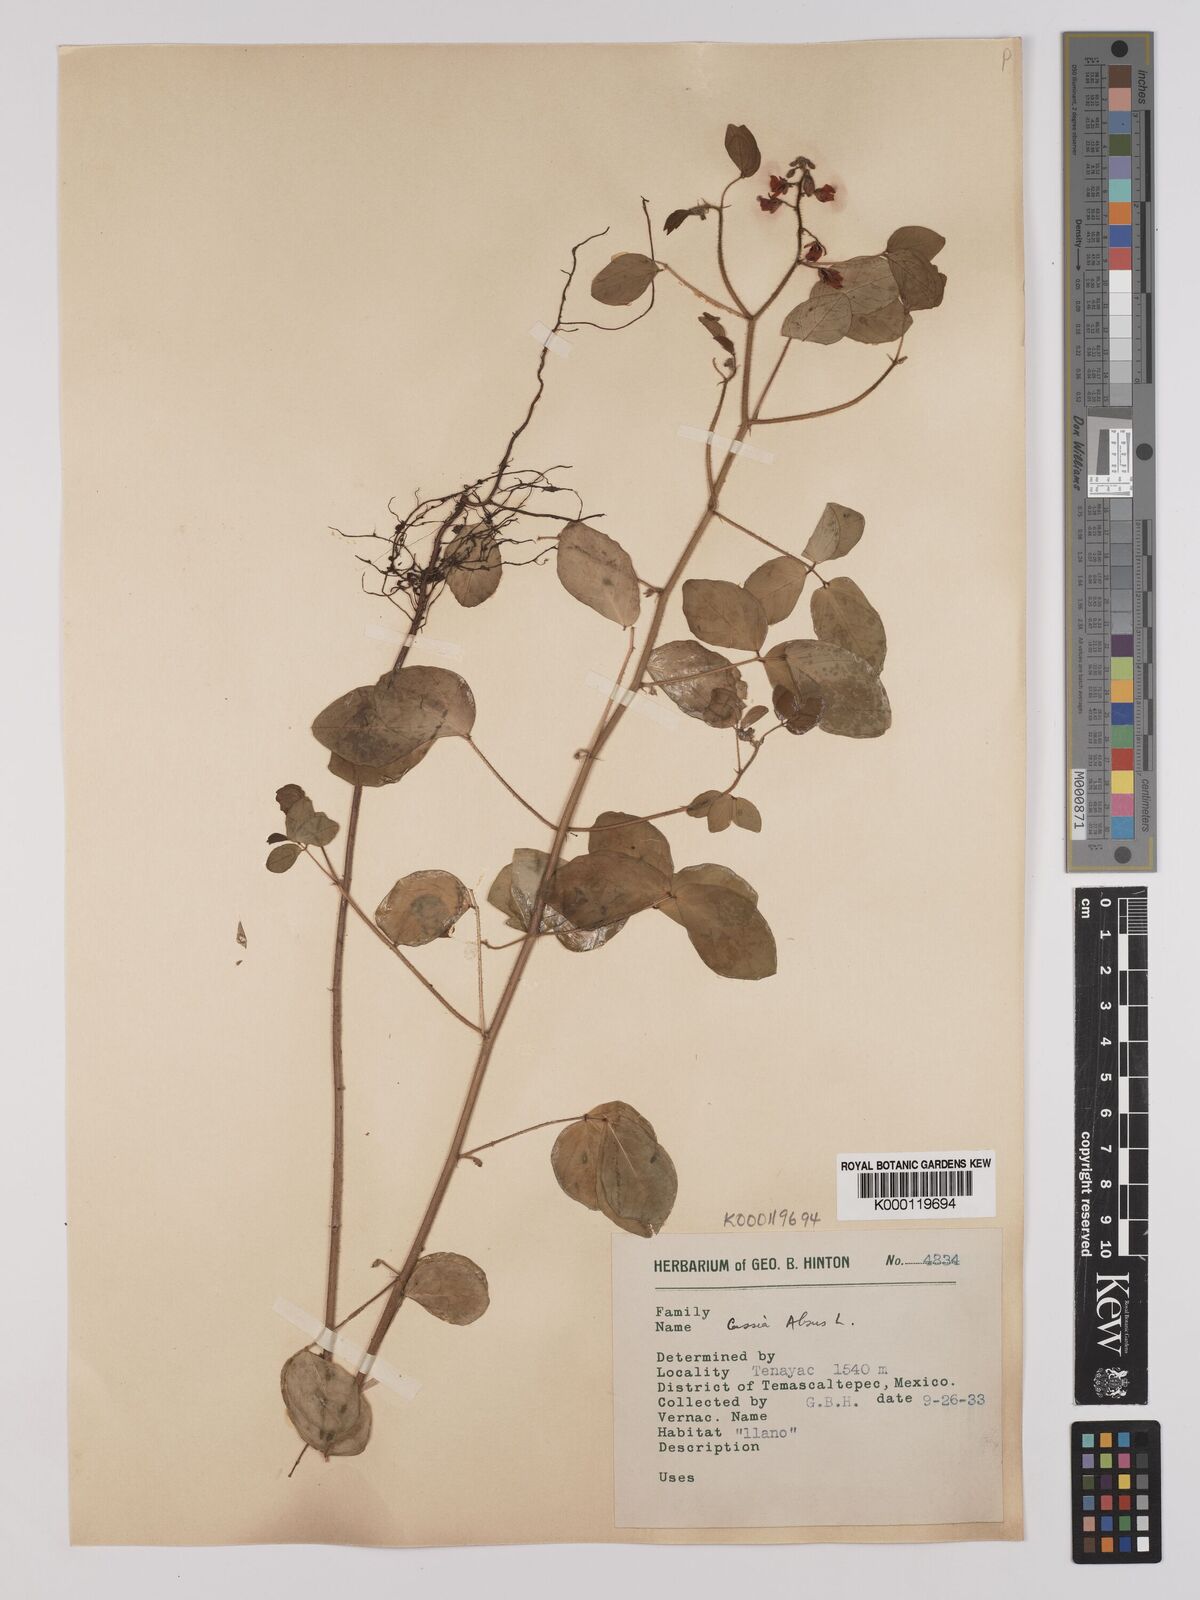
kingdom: Plantae
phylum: Tracheophyta
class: Magnoliopsida
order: Fabales
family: Fabaceae
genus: Chamaecrista
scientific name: Chamaecrista absus
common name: Tropical sensitive pea
